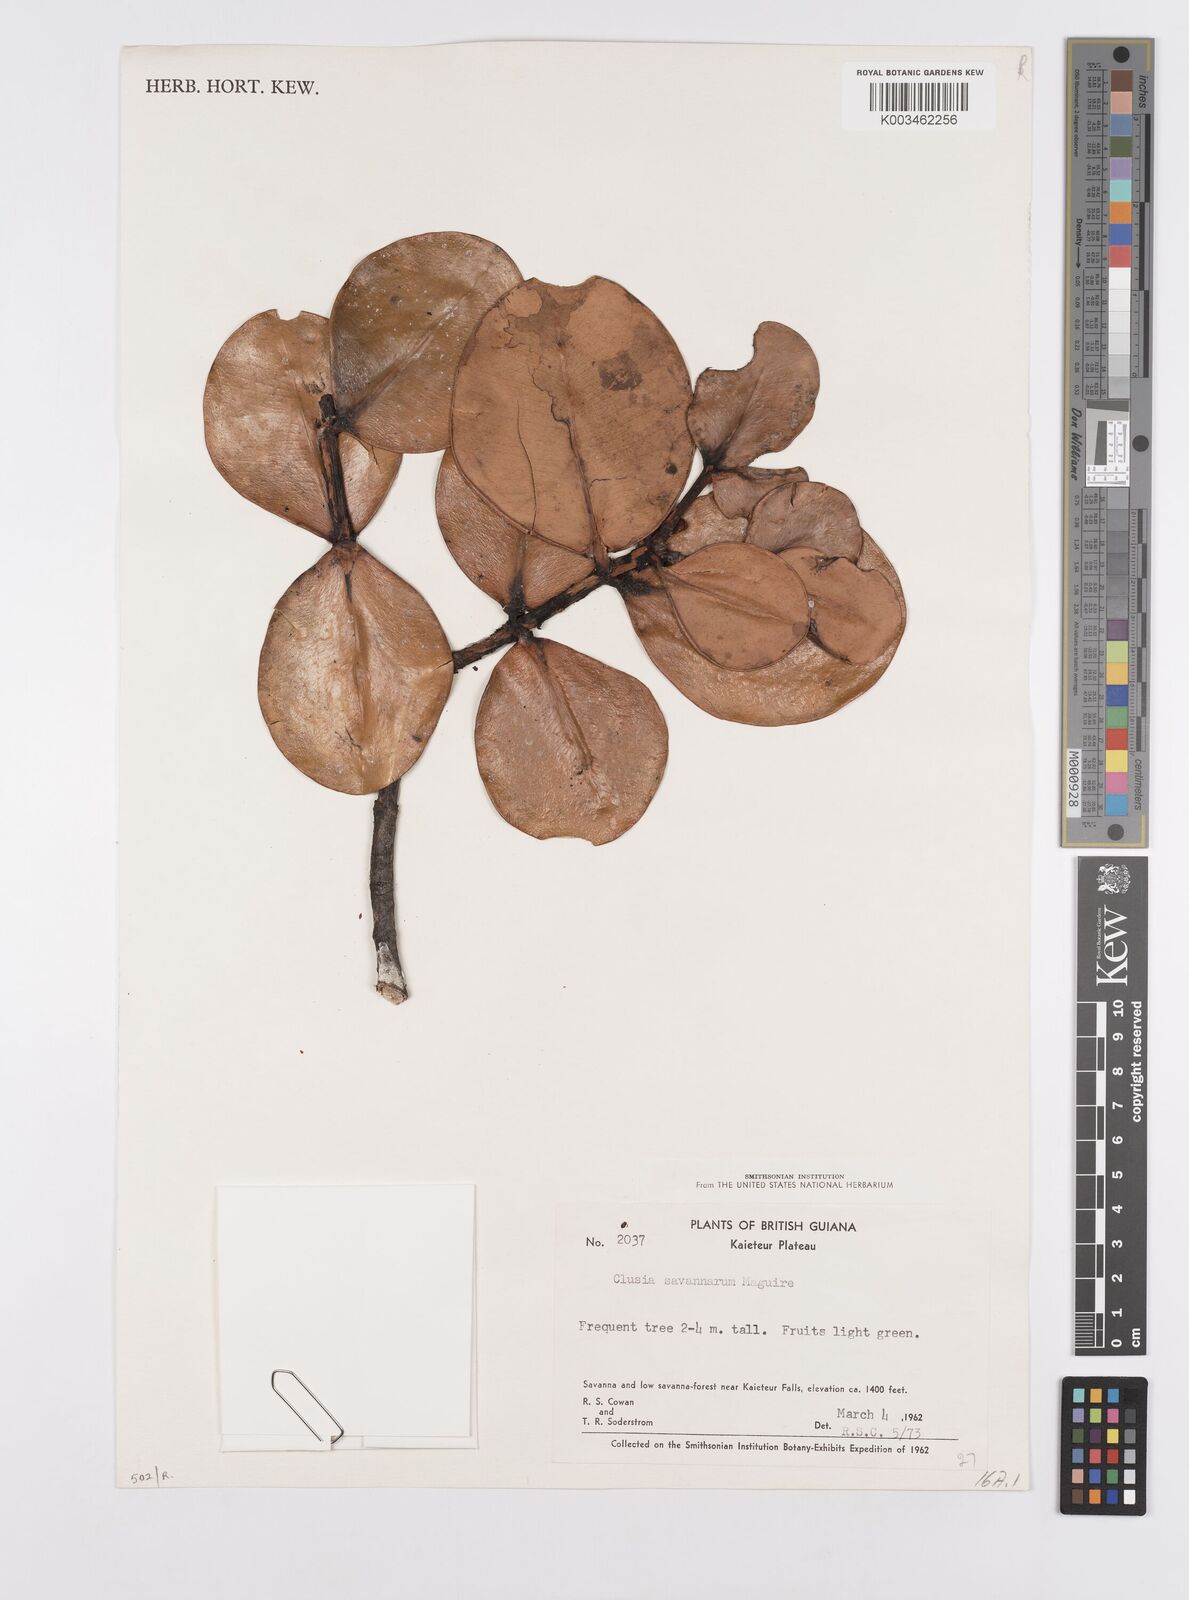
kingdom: Plantae
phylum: Tracheophyta
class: Magnoliopsida
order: Malpighiales
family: Clusiaceae
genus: Clusia
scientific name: Clusia savannarum
